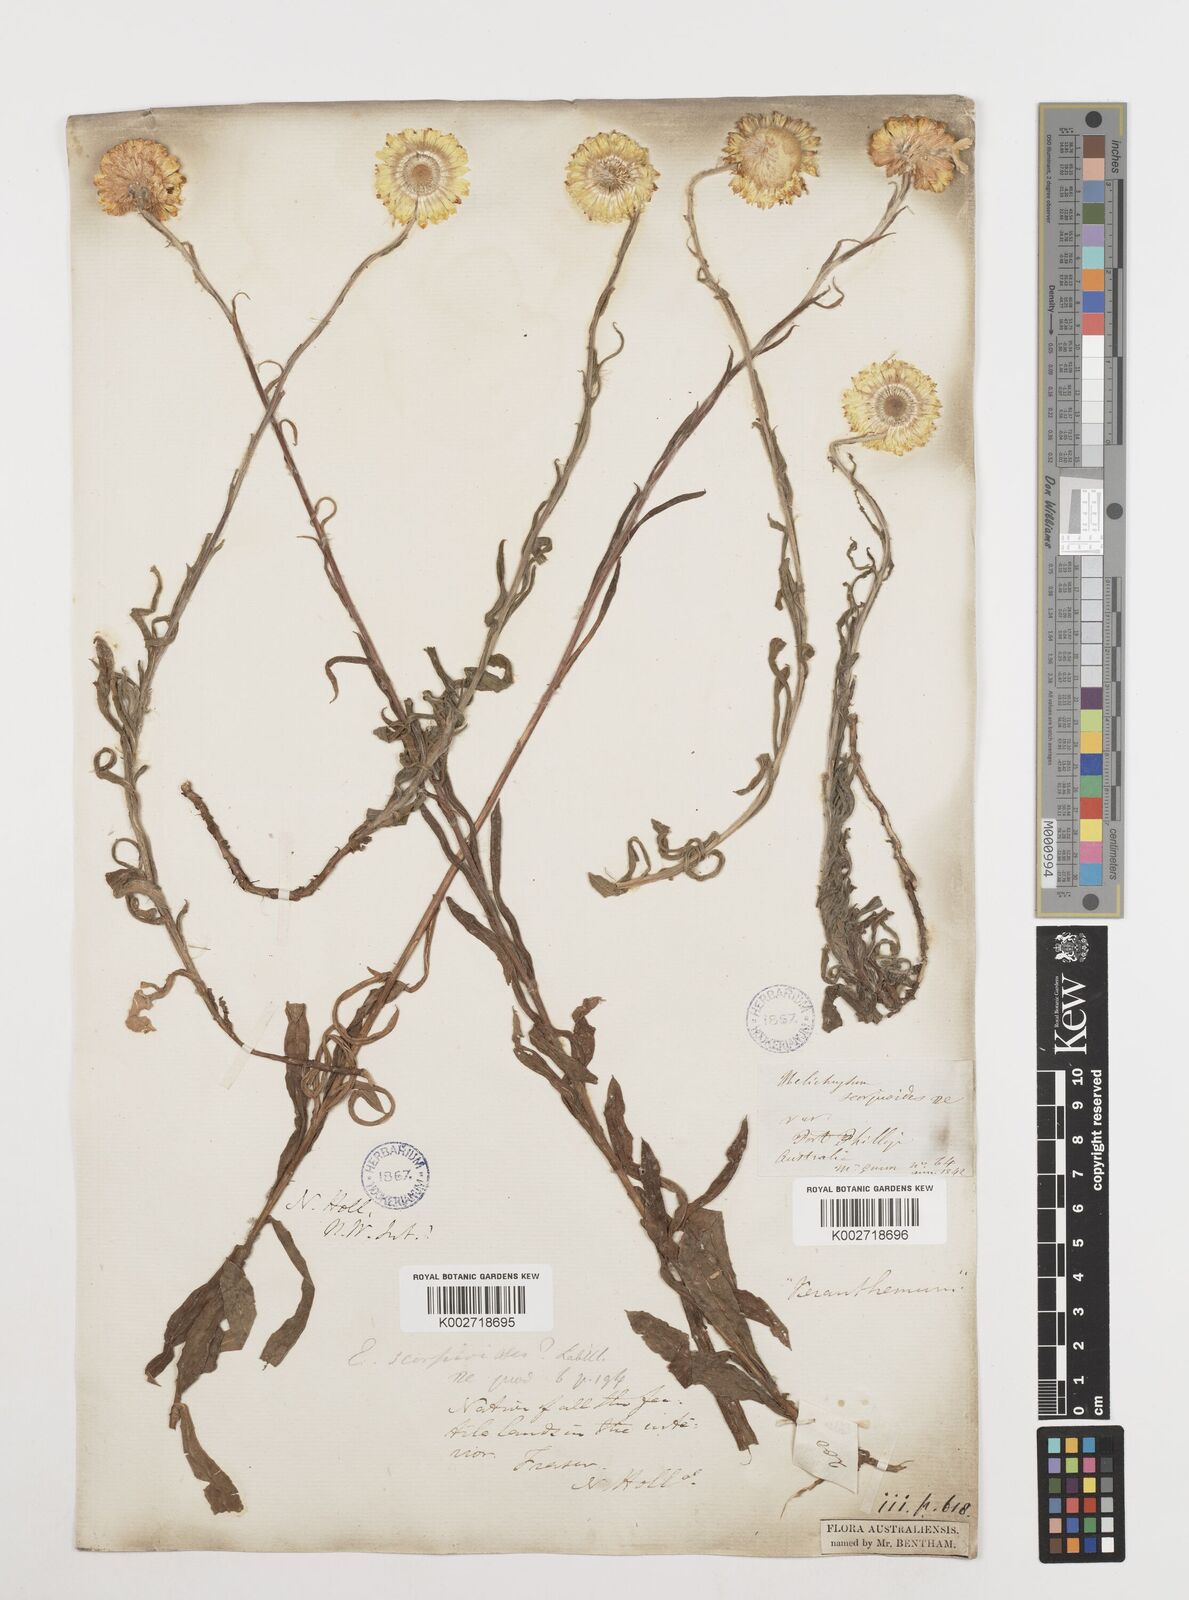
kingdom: Plantae
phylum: Tracheophyta
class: Magnoliopsida
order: Asterales
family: Asteraceae
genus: Coronidium
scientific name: Coronidium scorpioides
